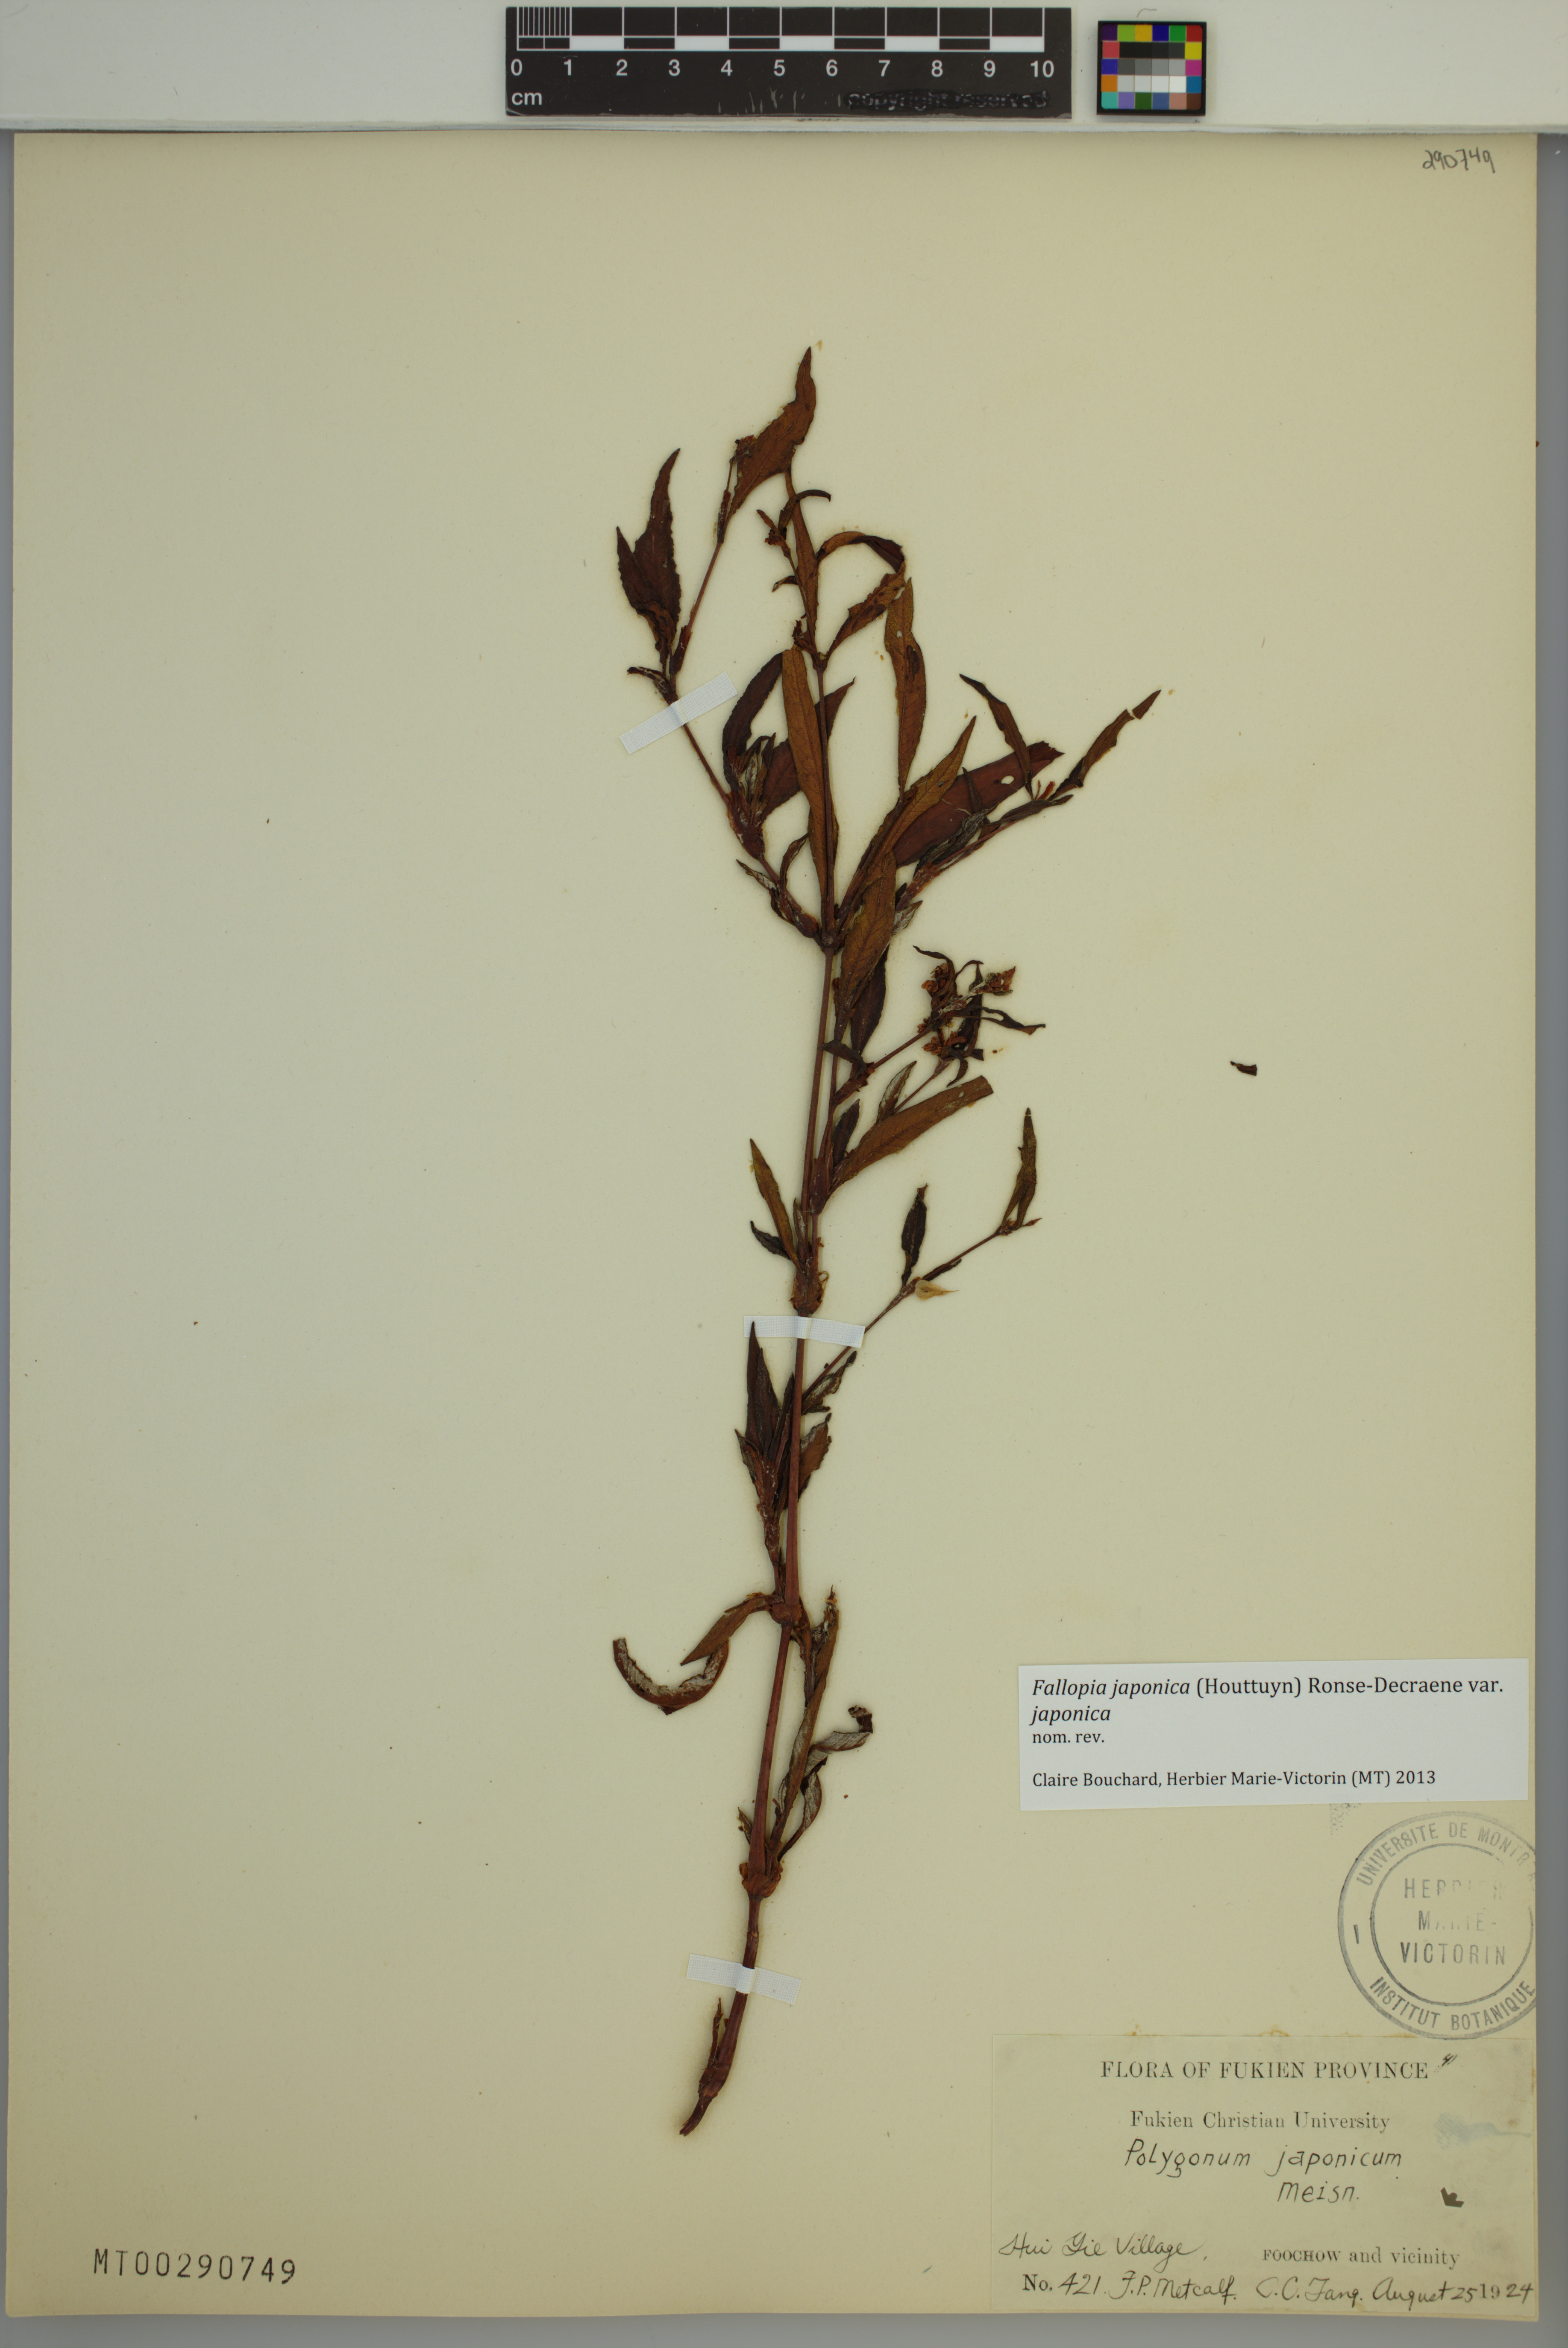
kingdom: Plantae
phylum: Tracheophyta
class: Magnoliopsida
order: Caryophyllales
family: Polygonaceae
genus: Reynoutria
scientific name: Reynoutria japonica
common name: Japanese knotweed
